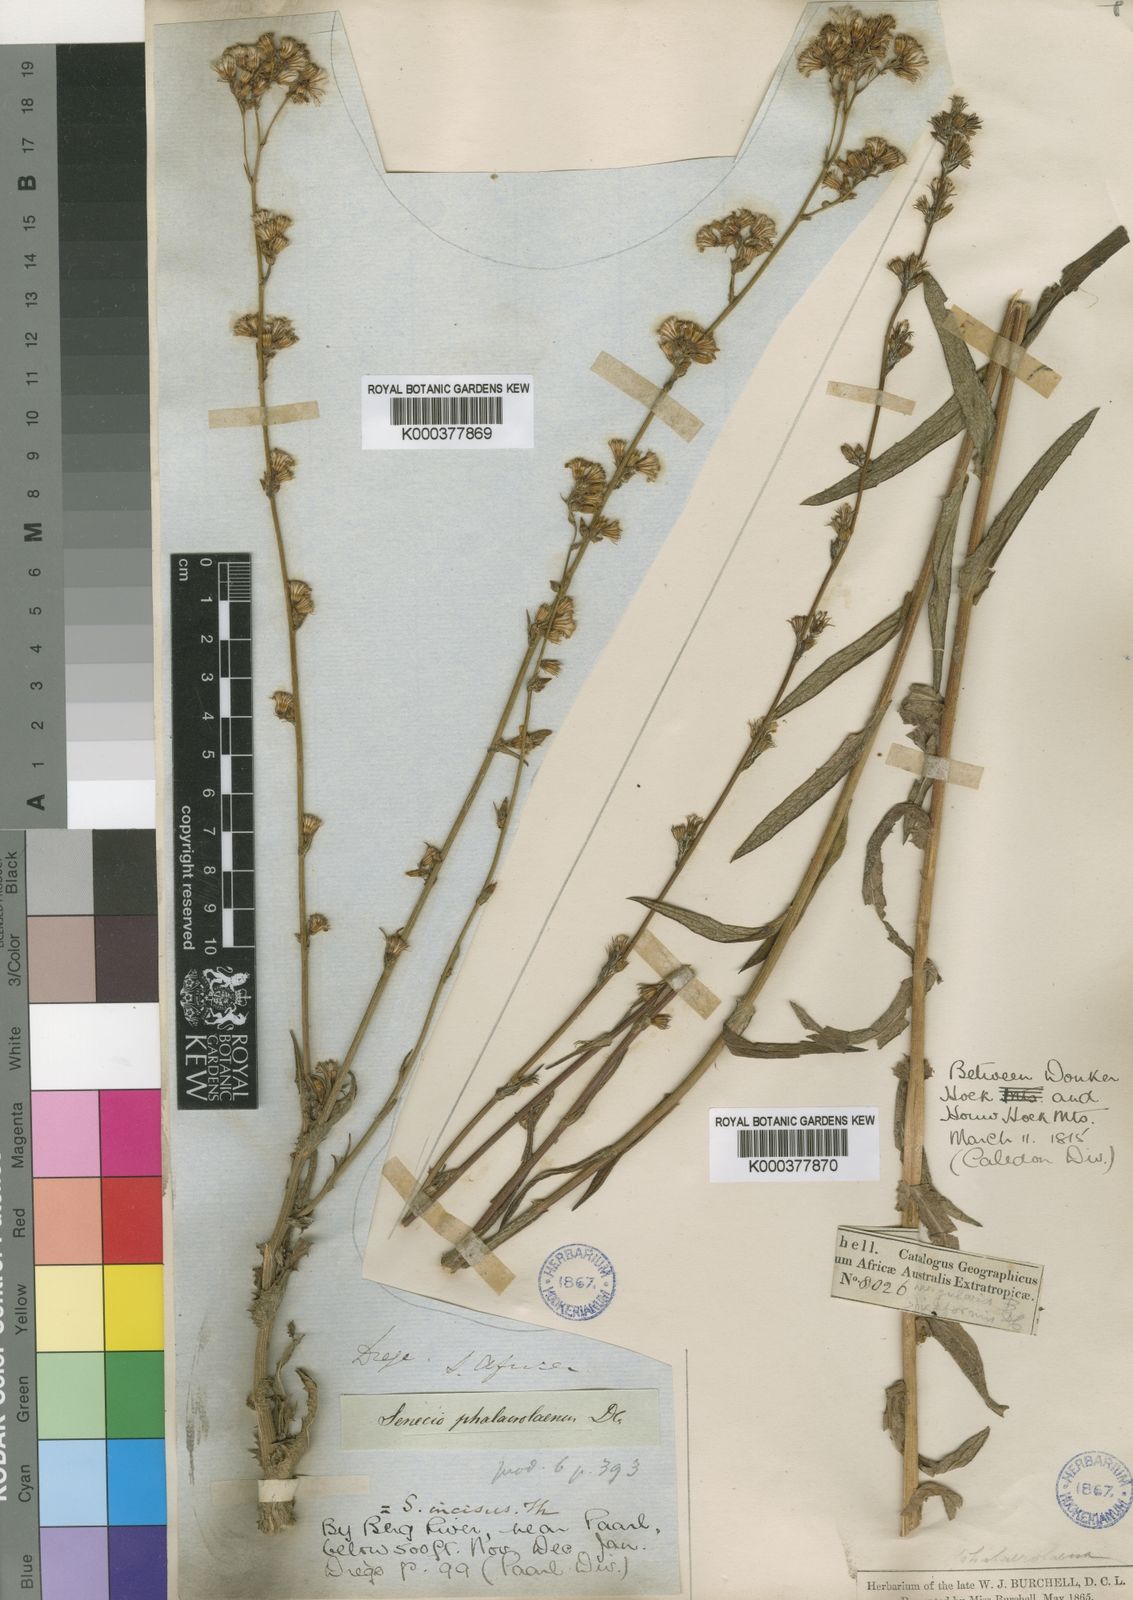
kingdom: Plantae
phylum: Tracheophyta
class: Magnoliopsida
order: Asterales
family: Asteraceae
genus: Senecio
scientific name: Senecio phalachrolaenus
